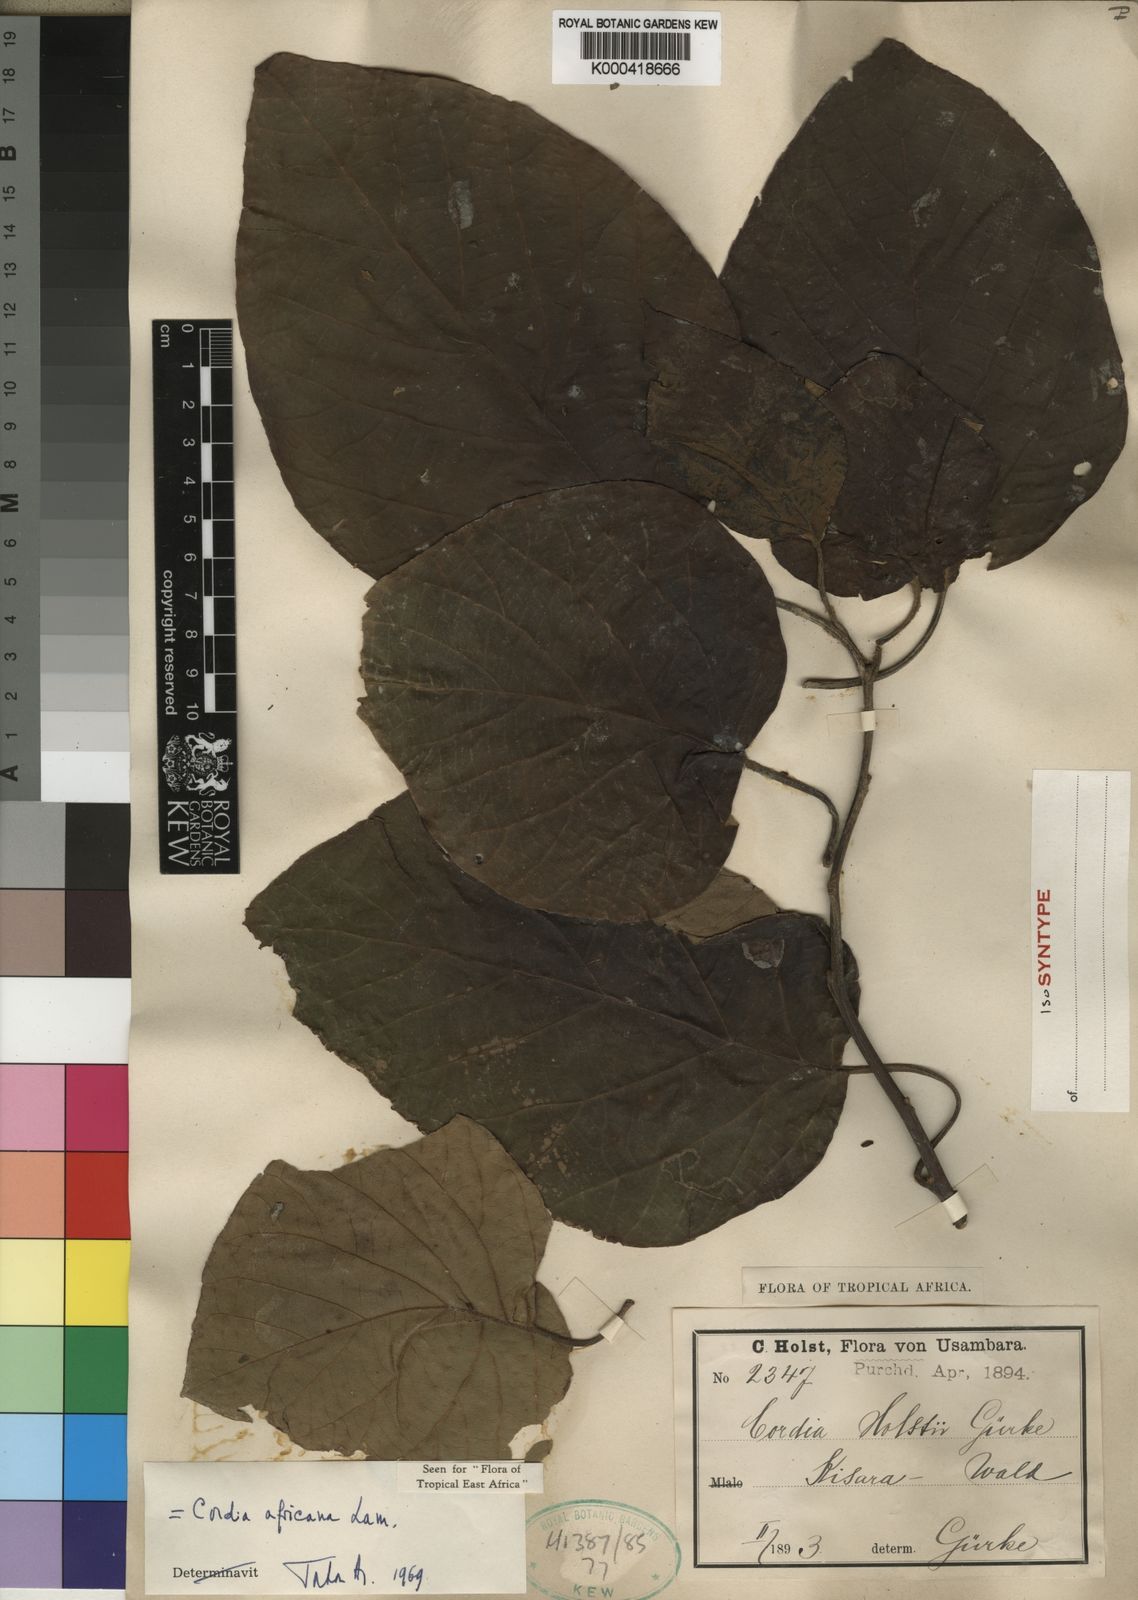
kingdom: Plantae
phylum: Tracheophyta
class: Magnoliopsida
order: Boraginales
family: Cordiaceae
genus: Cordia
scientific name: Cordia africana
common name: Large-leaved cordia
